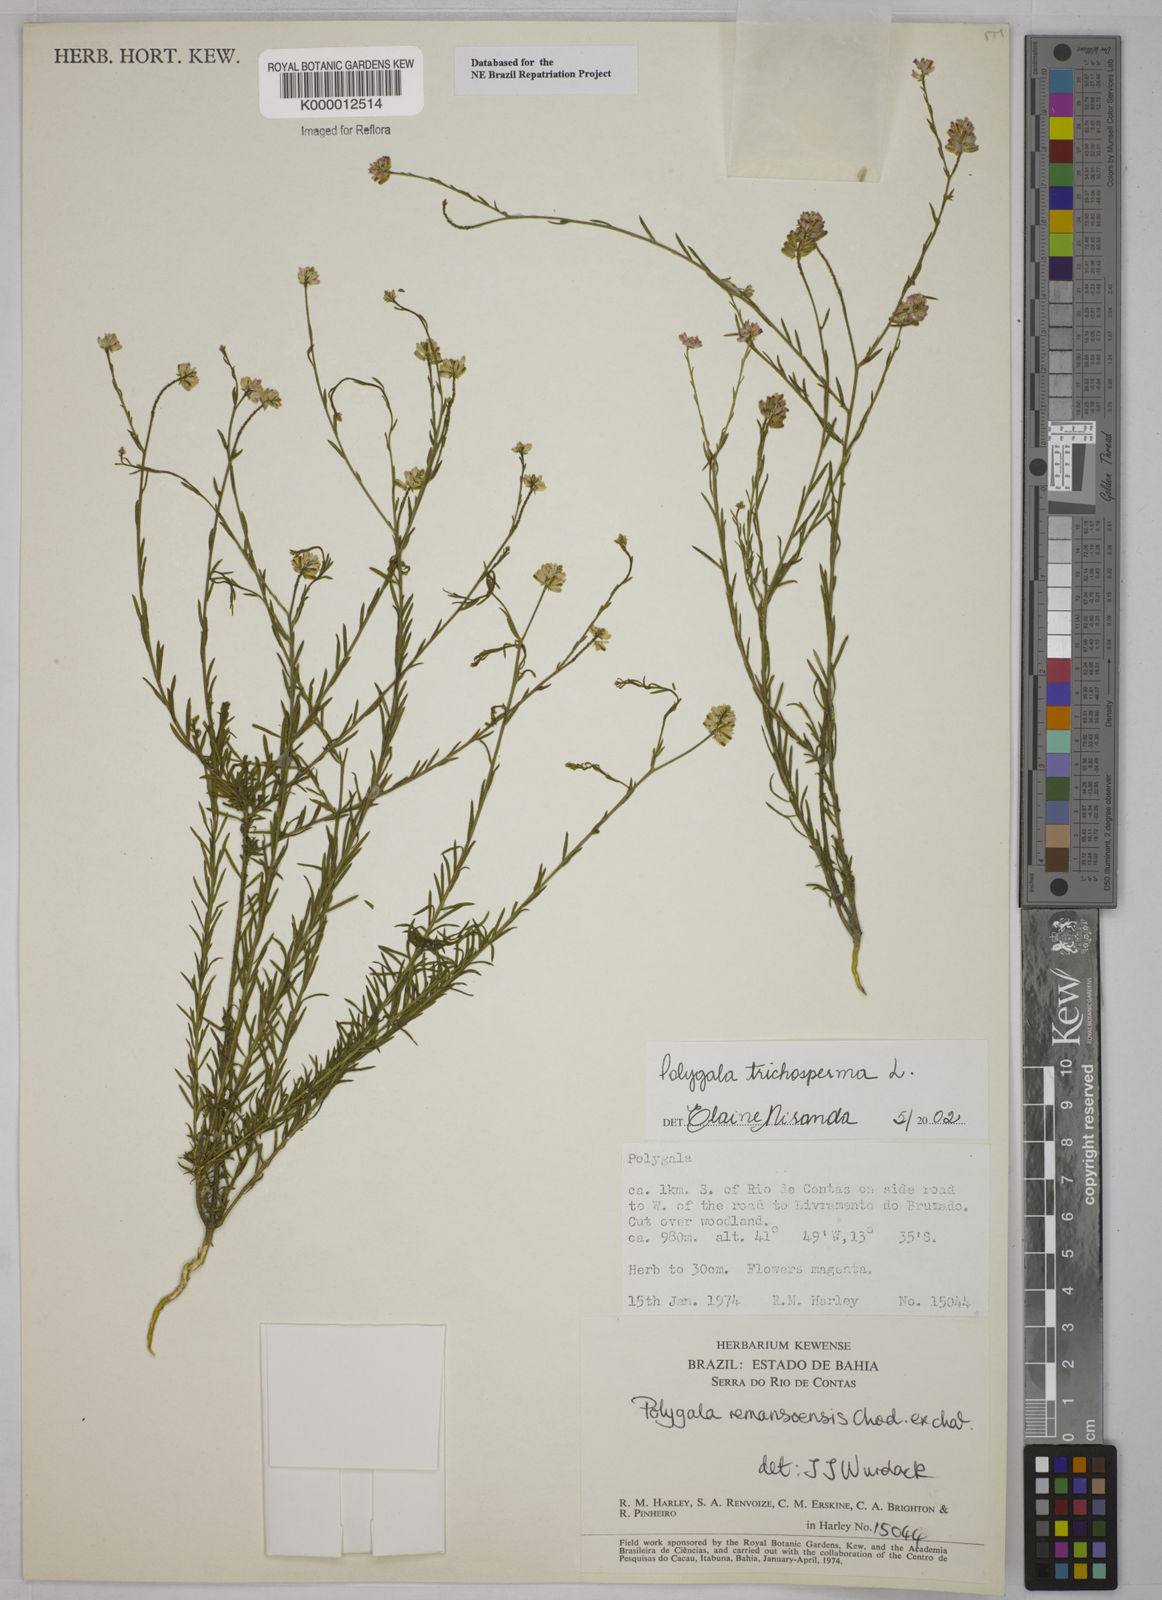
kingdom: Plantae
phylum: Tracheophyta
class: Magnoliopsida
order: Fabales
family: Polygalaceae
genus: Polygala
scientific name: Polygala
